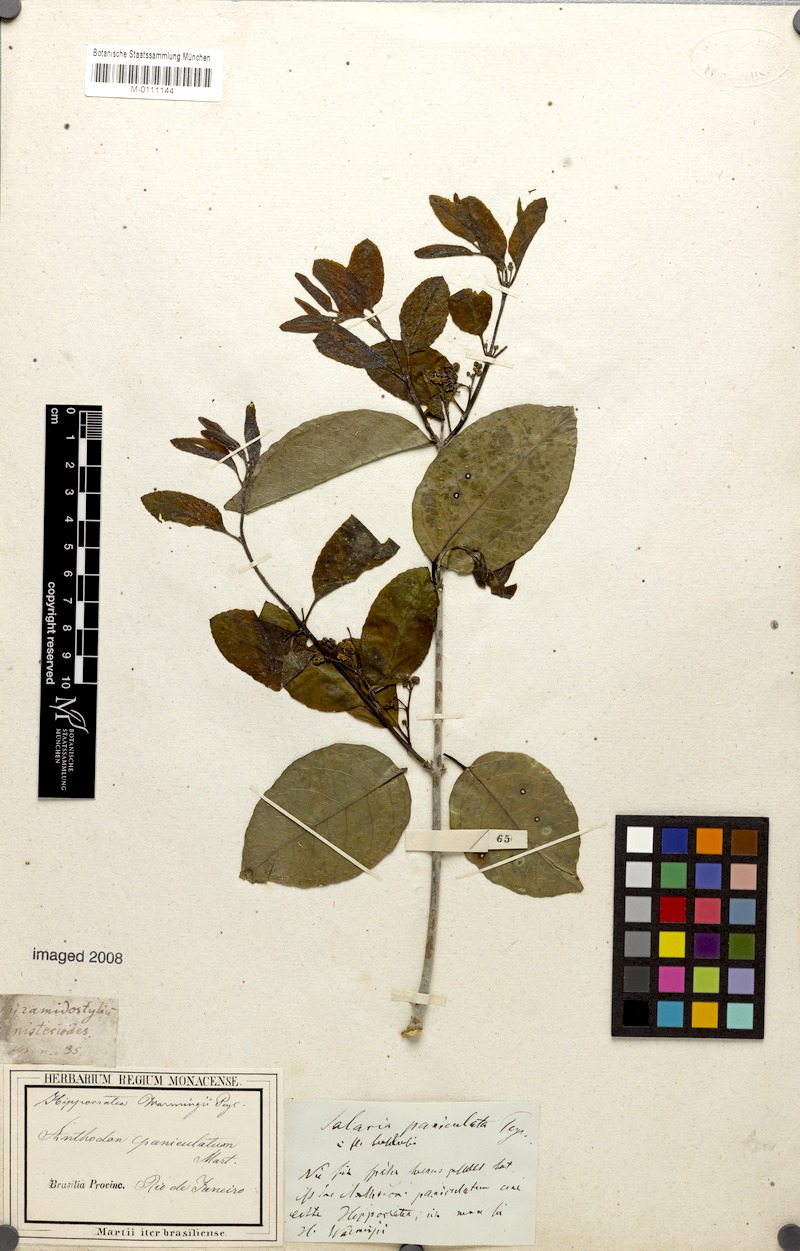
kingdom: Plantae
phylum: Tracheophyta
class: Magnoliopsida
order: Celastrales
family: Celastraceae
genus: Semialarium
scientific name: Semialarium paniculatum
